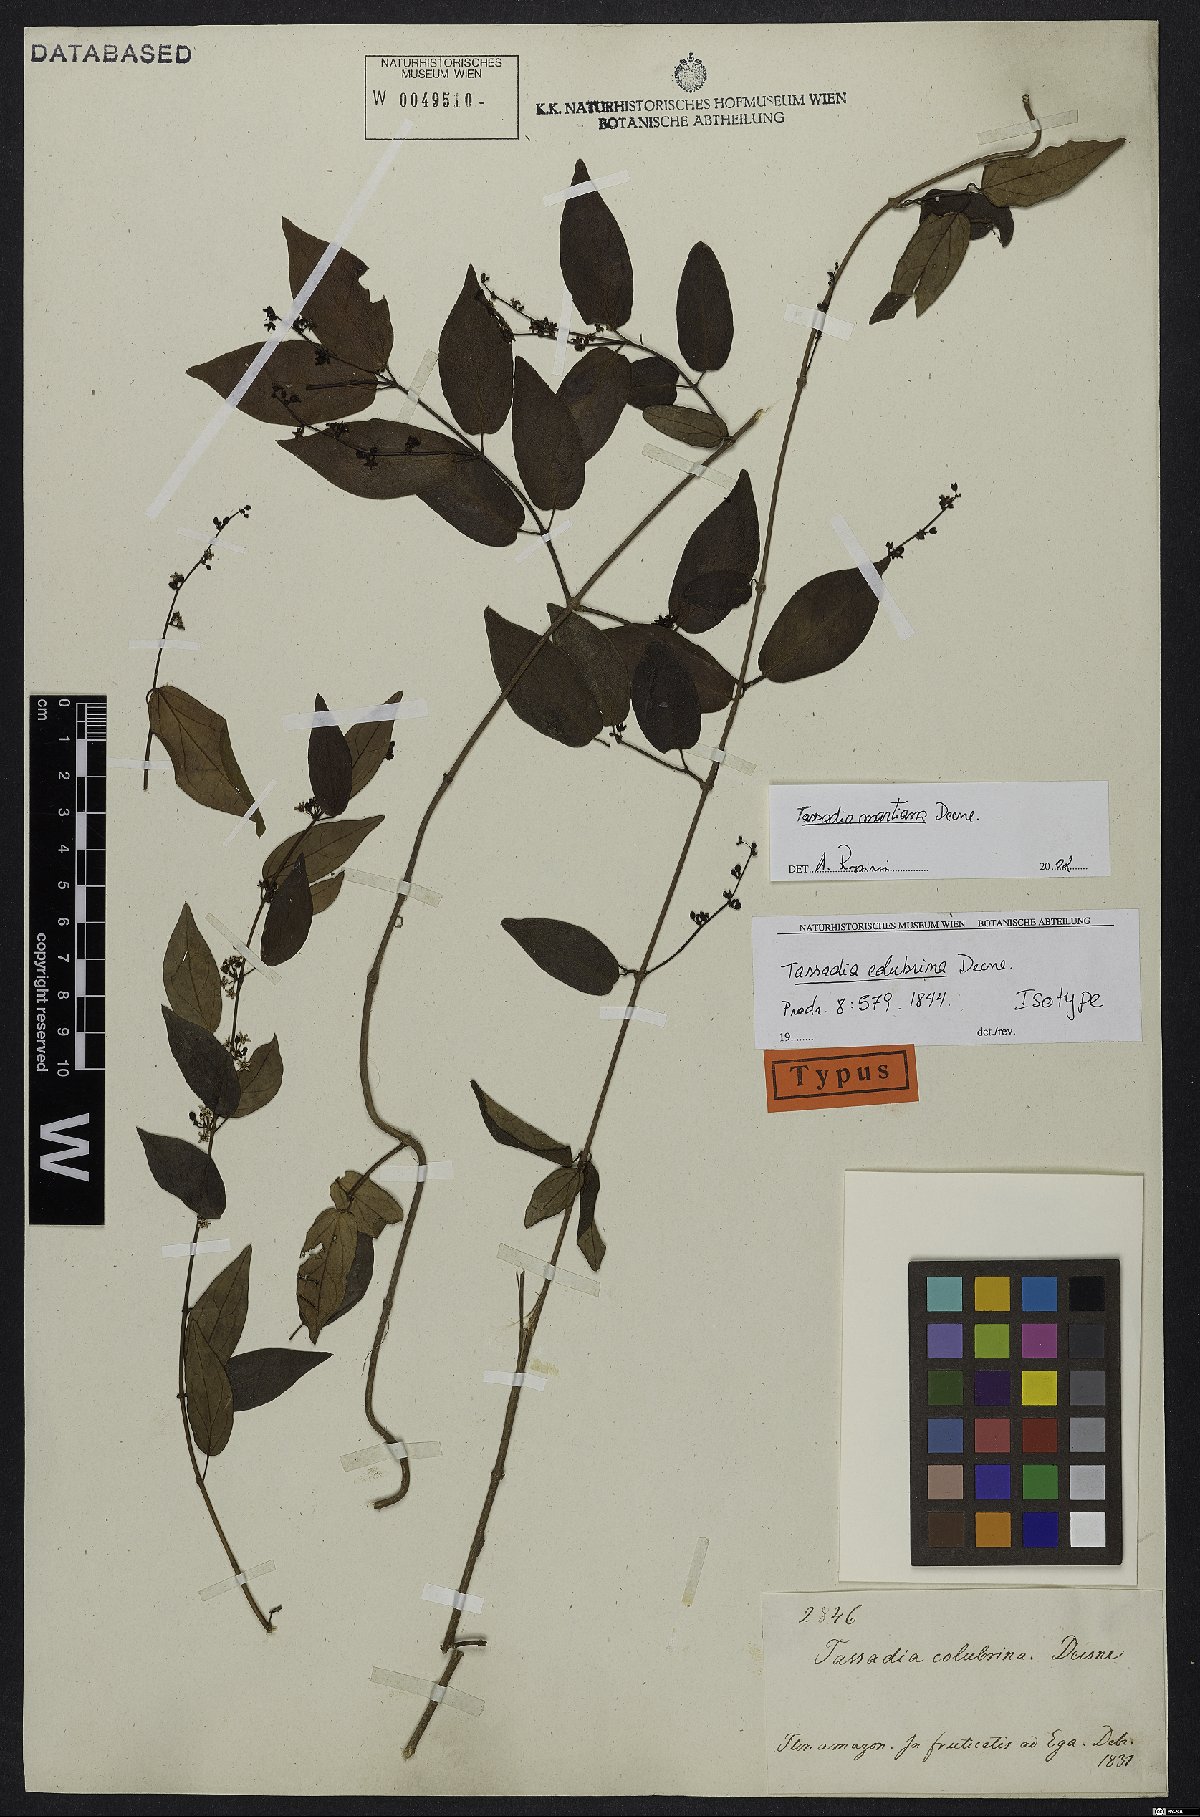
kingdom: Plantae
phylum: Tracheophyta
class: Magnoliopsida
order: Gentianales
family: Apocynaceae
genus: Tassadia
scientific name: Tassadia martiana
